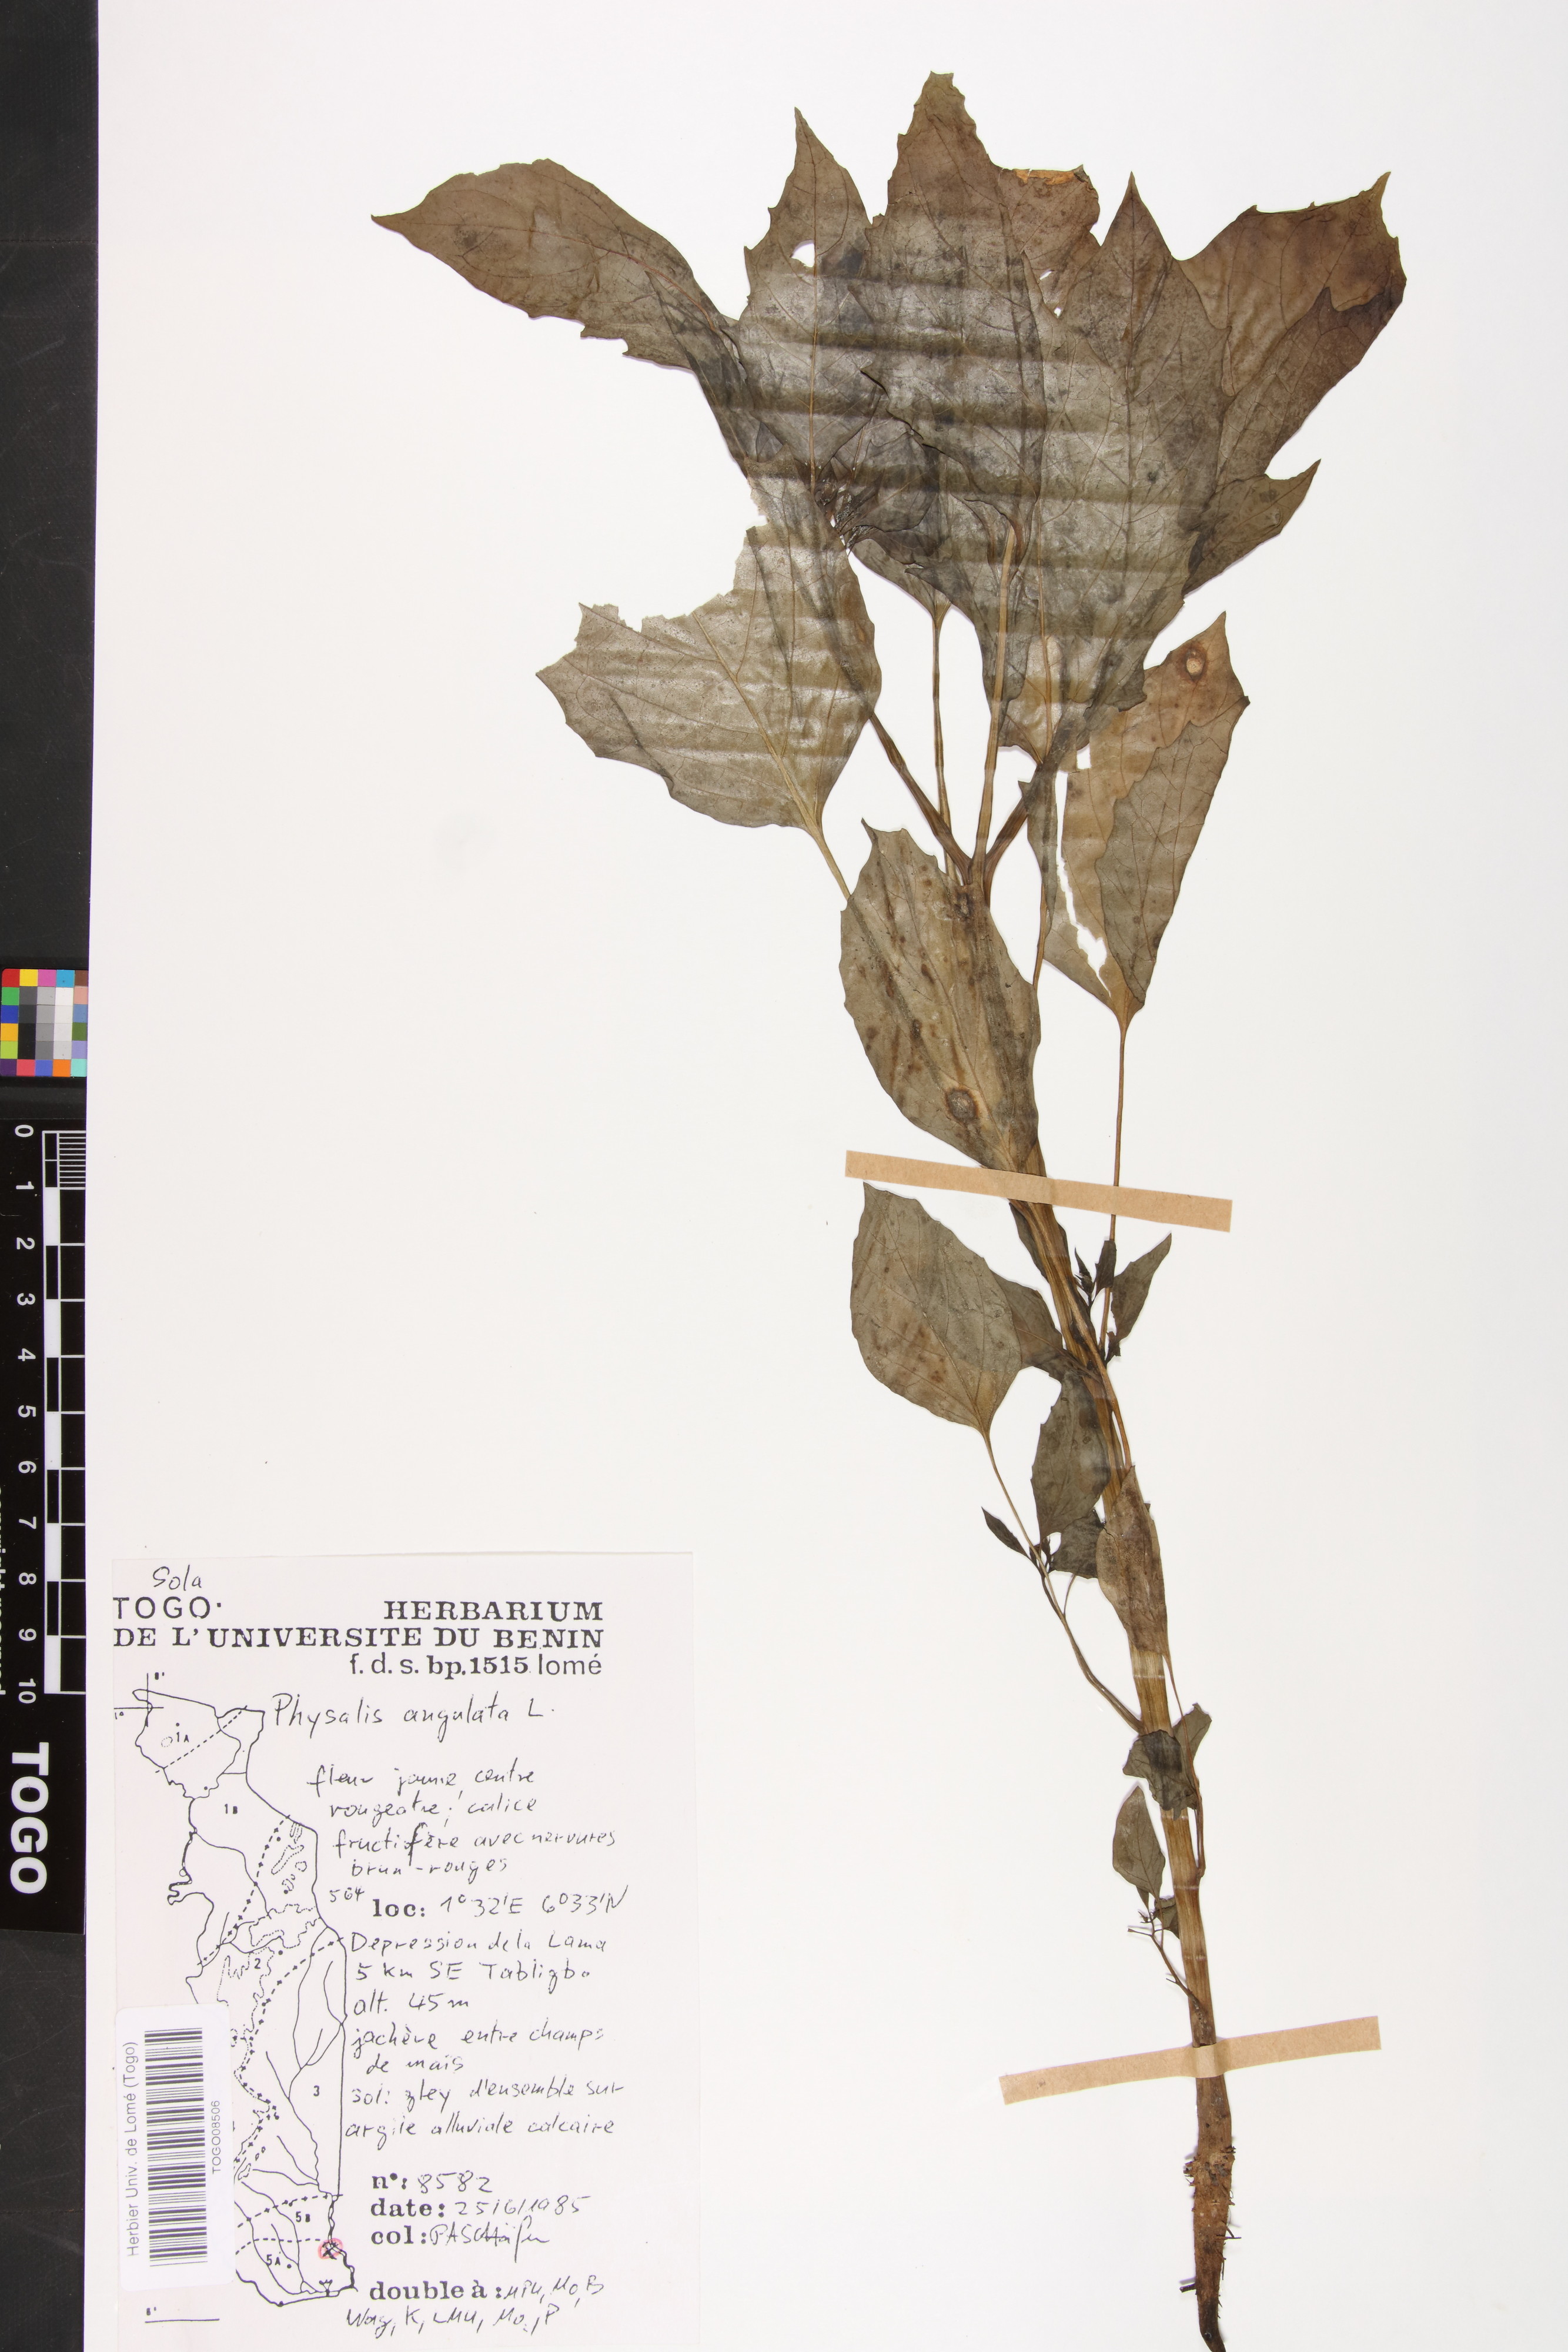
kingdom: Plantae
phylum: Tracheophyta
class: Magnoliopsida
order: Solanales
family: Solanaceae
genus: Physalis
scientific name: Physalis angulata
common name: Angular winter-cherry
